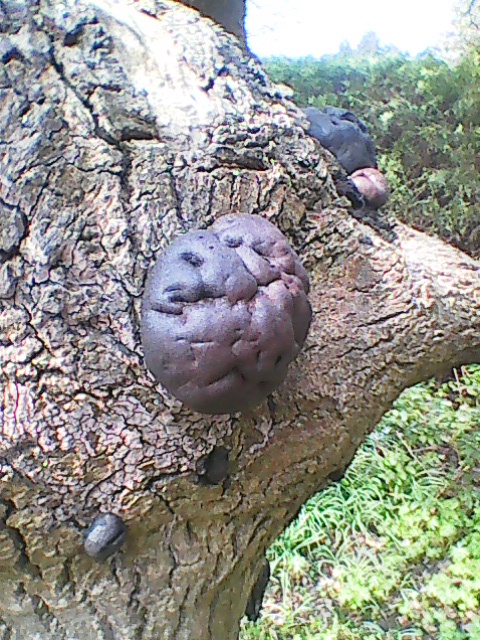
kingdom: Fungi
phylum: Ascomycota
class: Sordariomycetes
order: Xylariales
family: Hypoxylaceae
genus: Daldinia
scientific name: Daldinia concentrica
